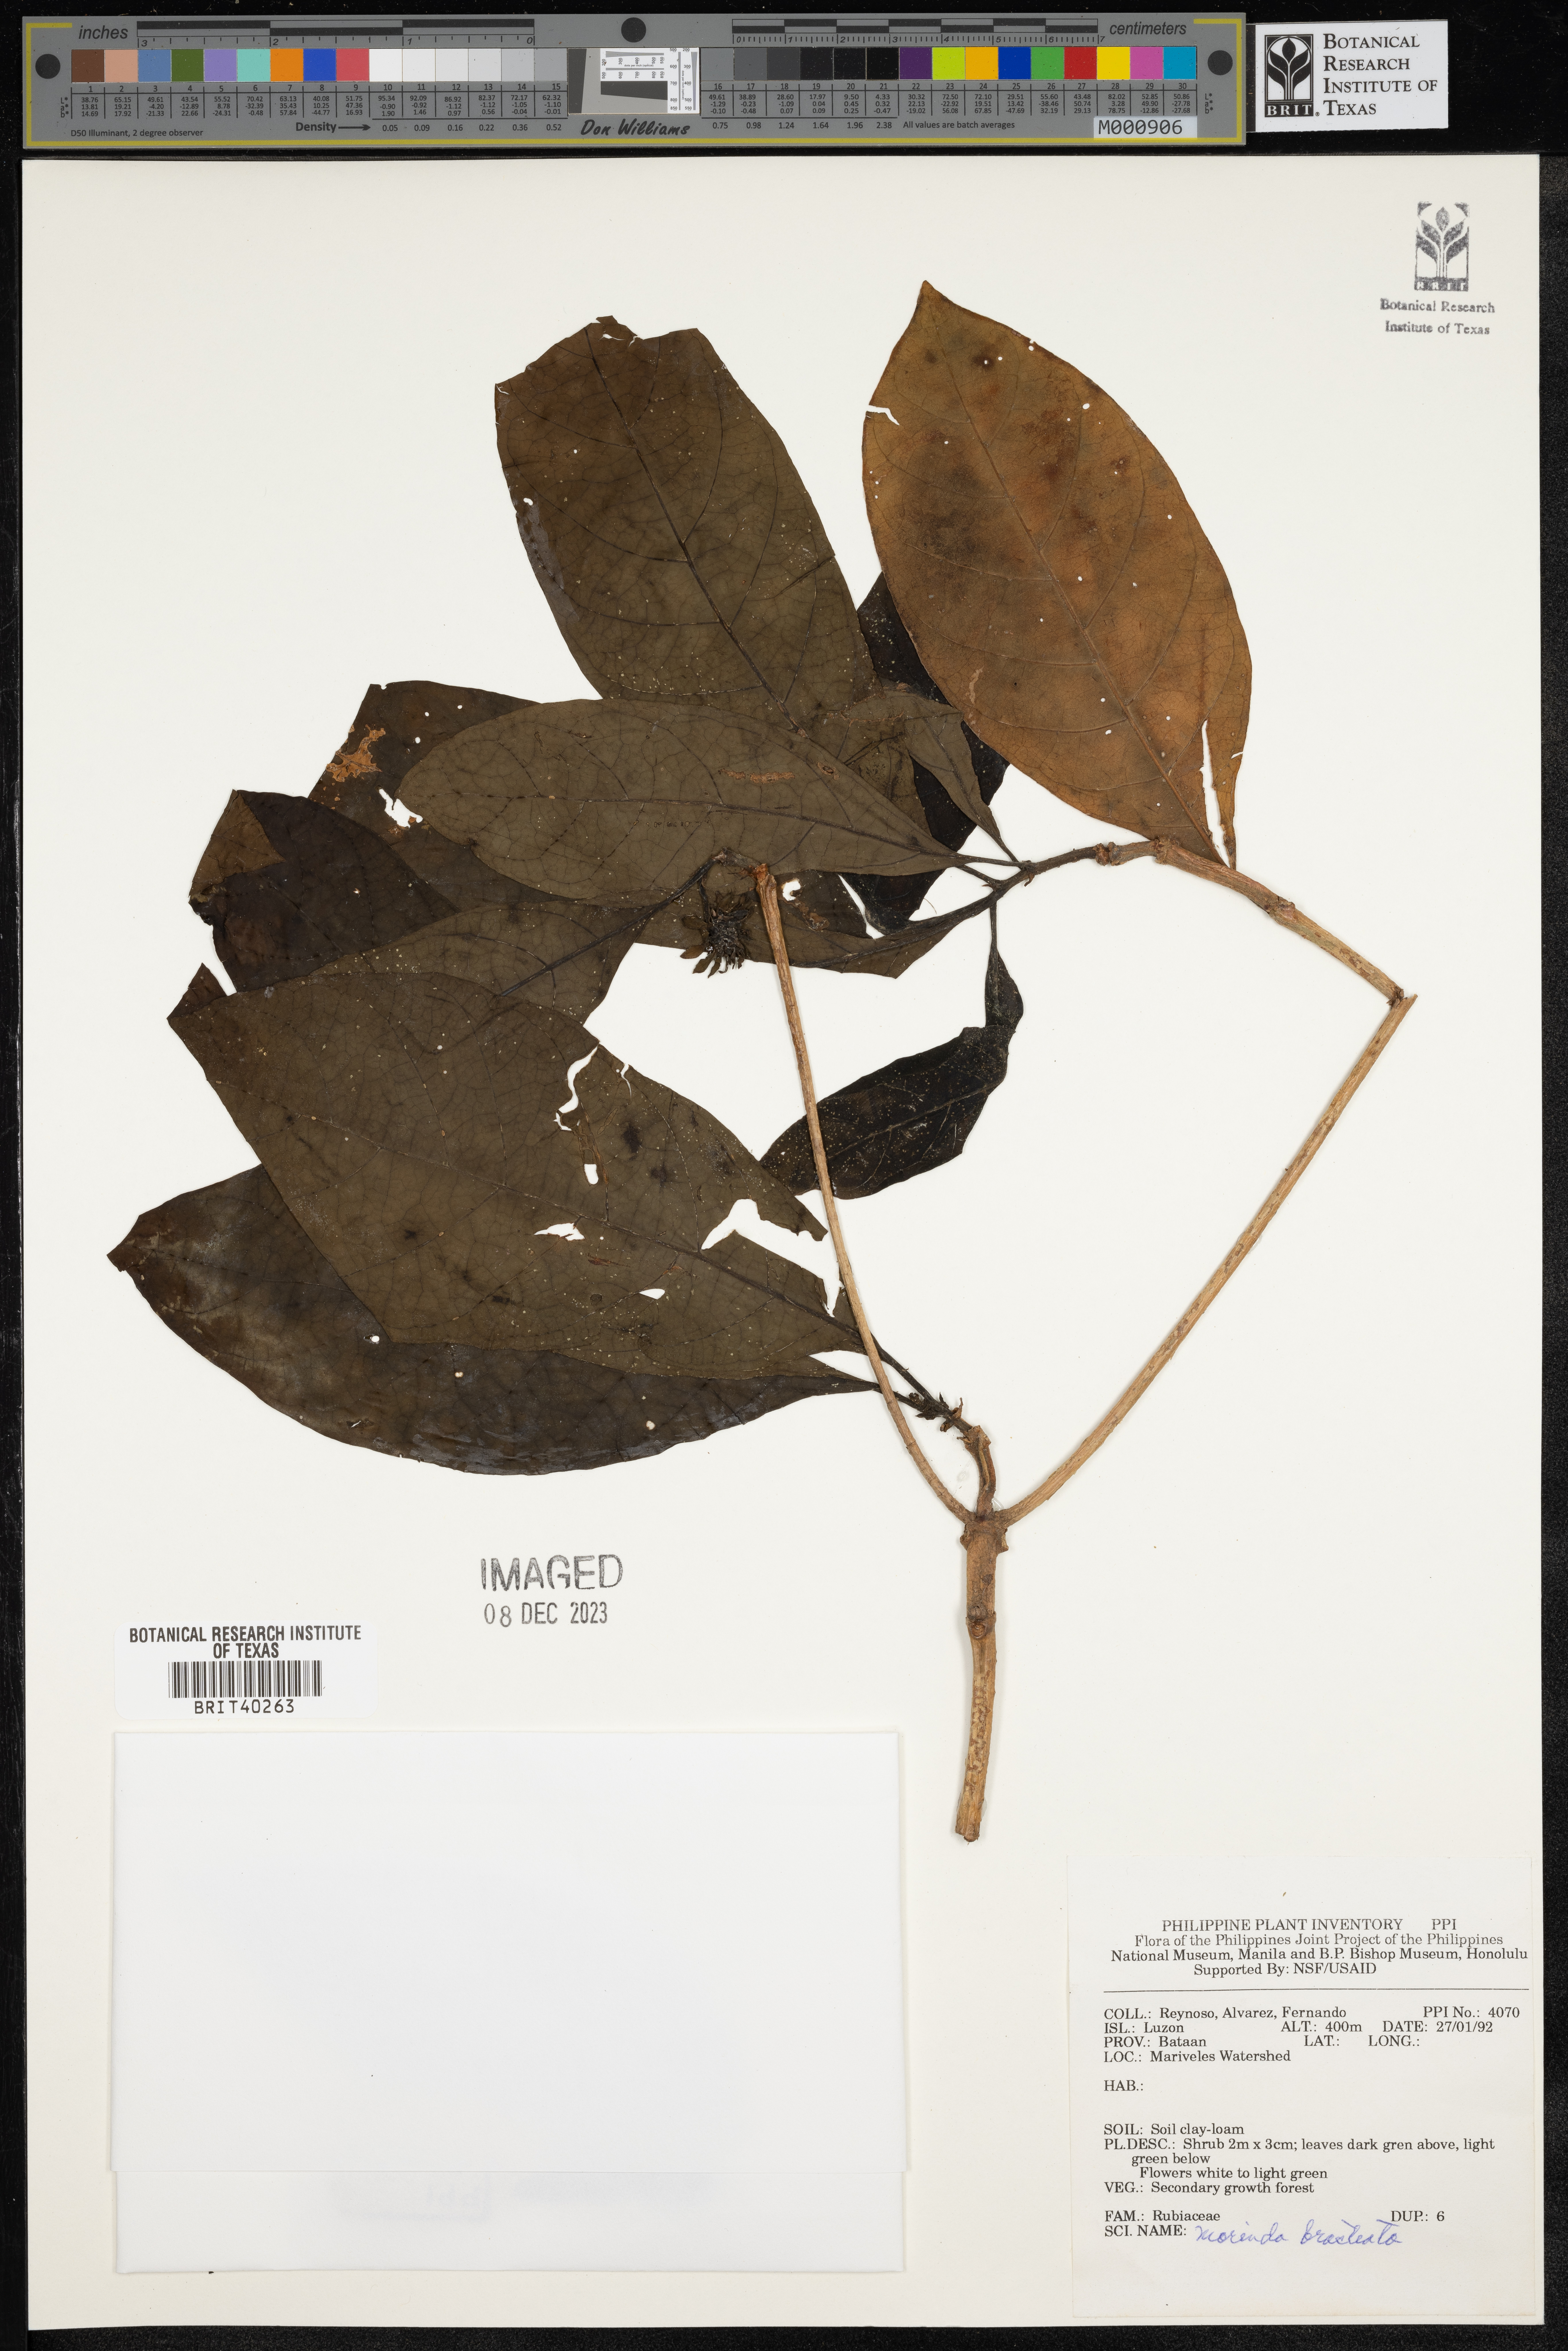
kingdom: Plantae
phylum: Tracheophyta
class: Magnoliopsida
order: Gentianales
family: Rubiaceae
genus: Morinda
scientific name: Morinda bracteata
